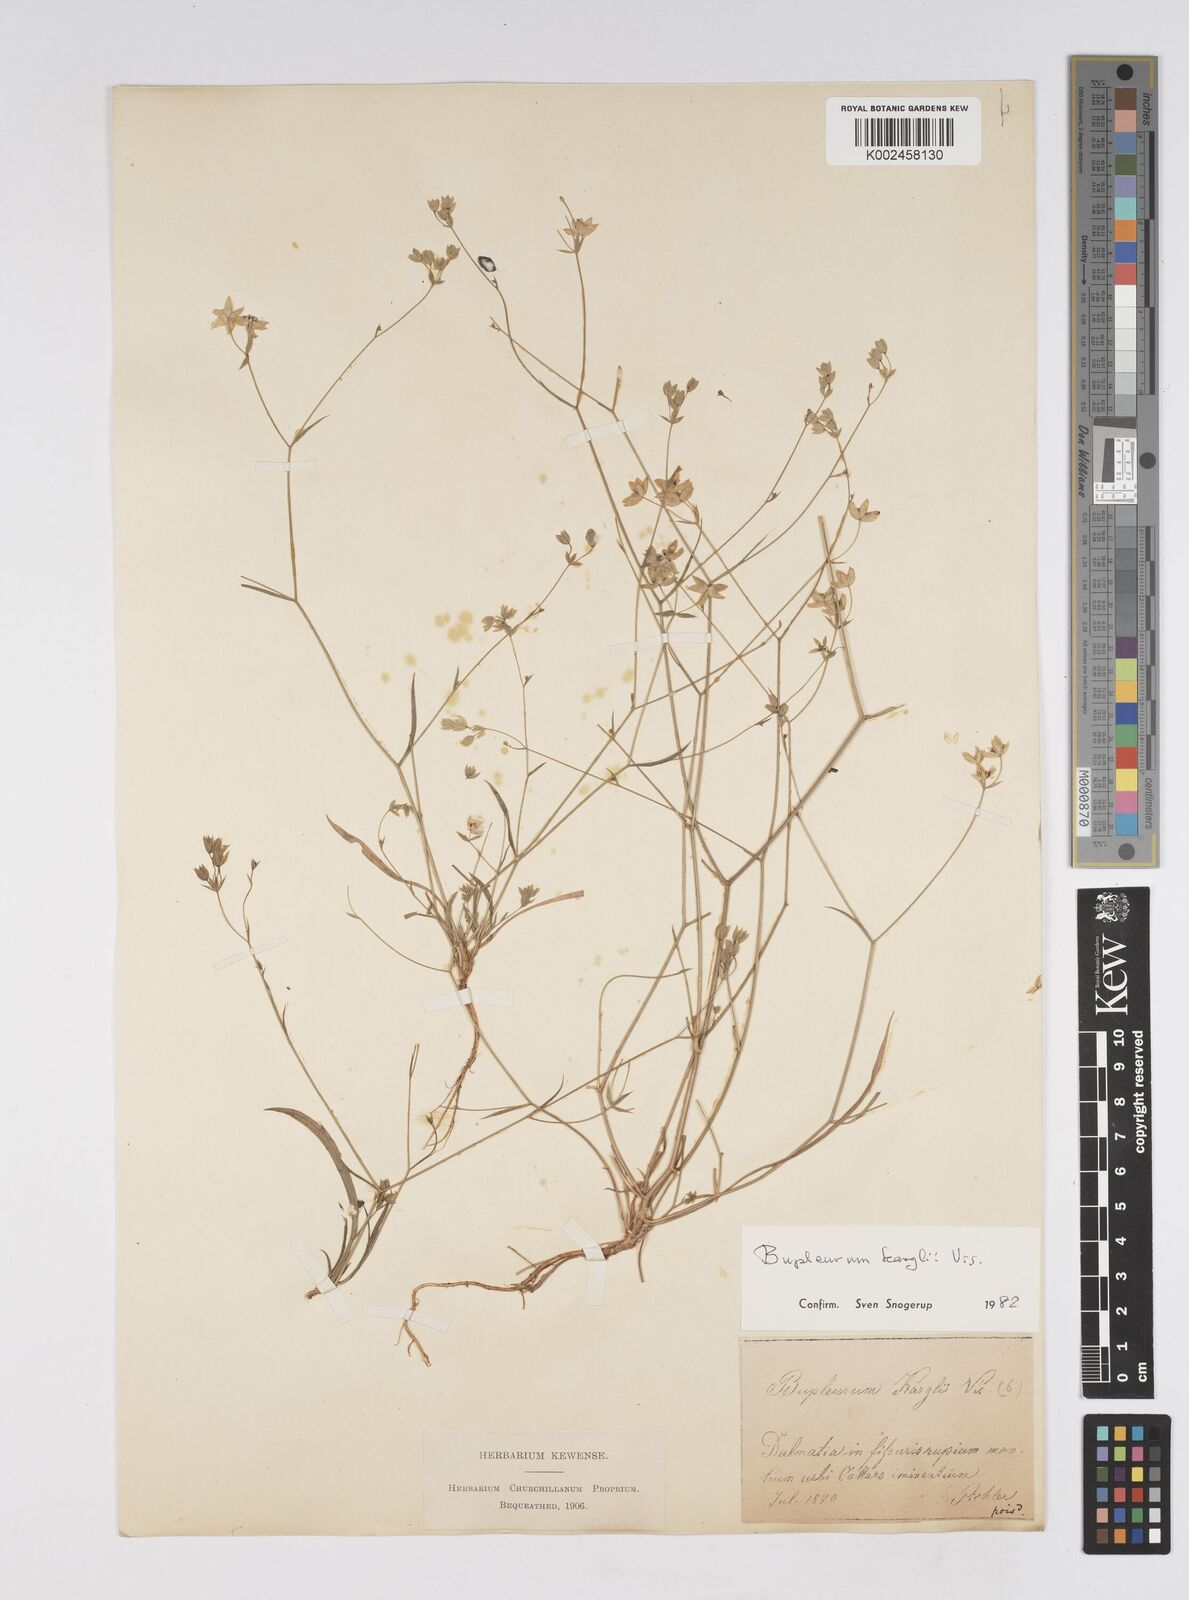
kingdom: Plantae
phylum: Tracheophyta
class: Magnoliopsida
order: Apiales
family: Apiaceae
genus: Bupleurum
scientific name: Bupleurum karglii
